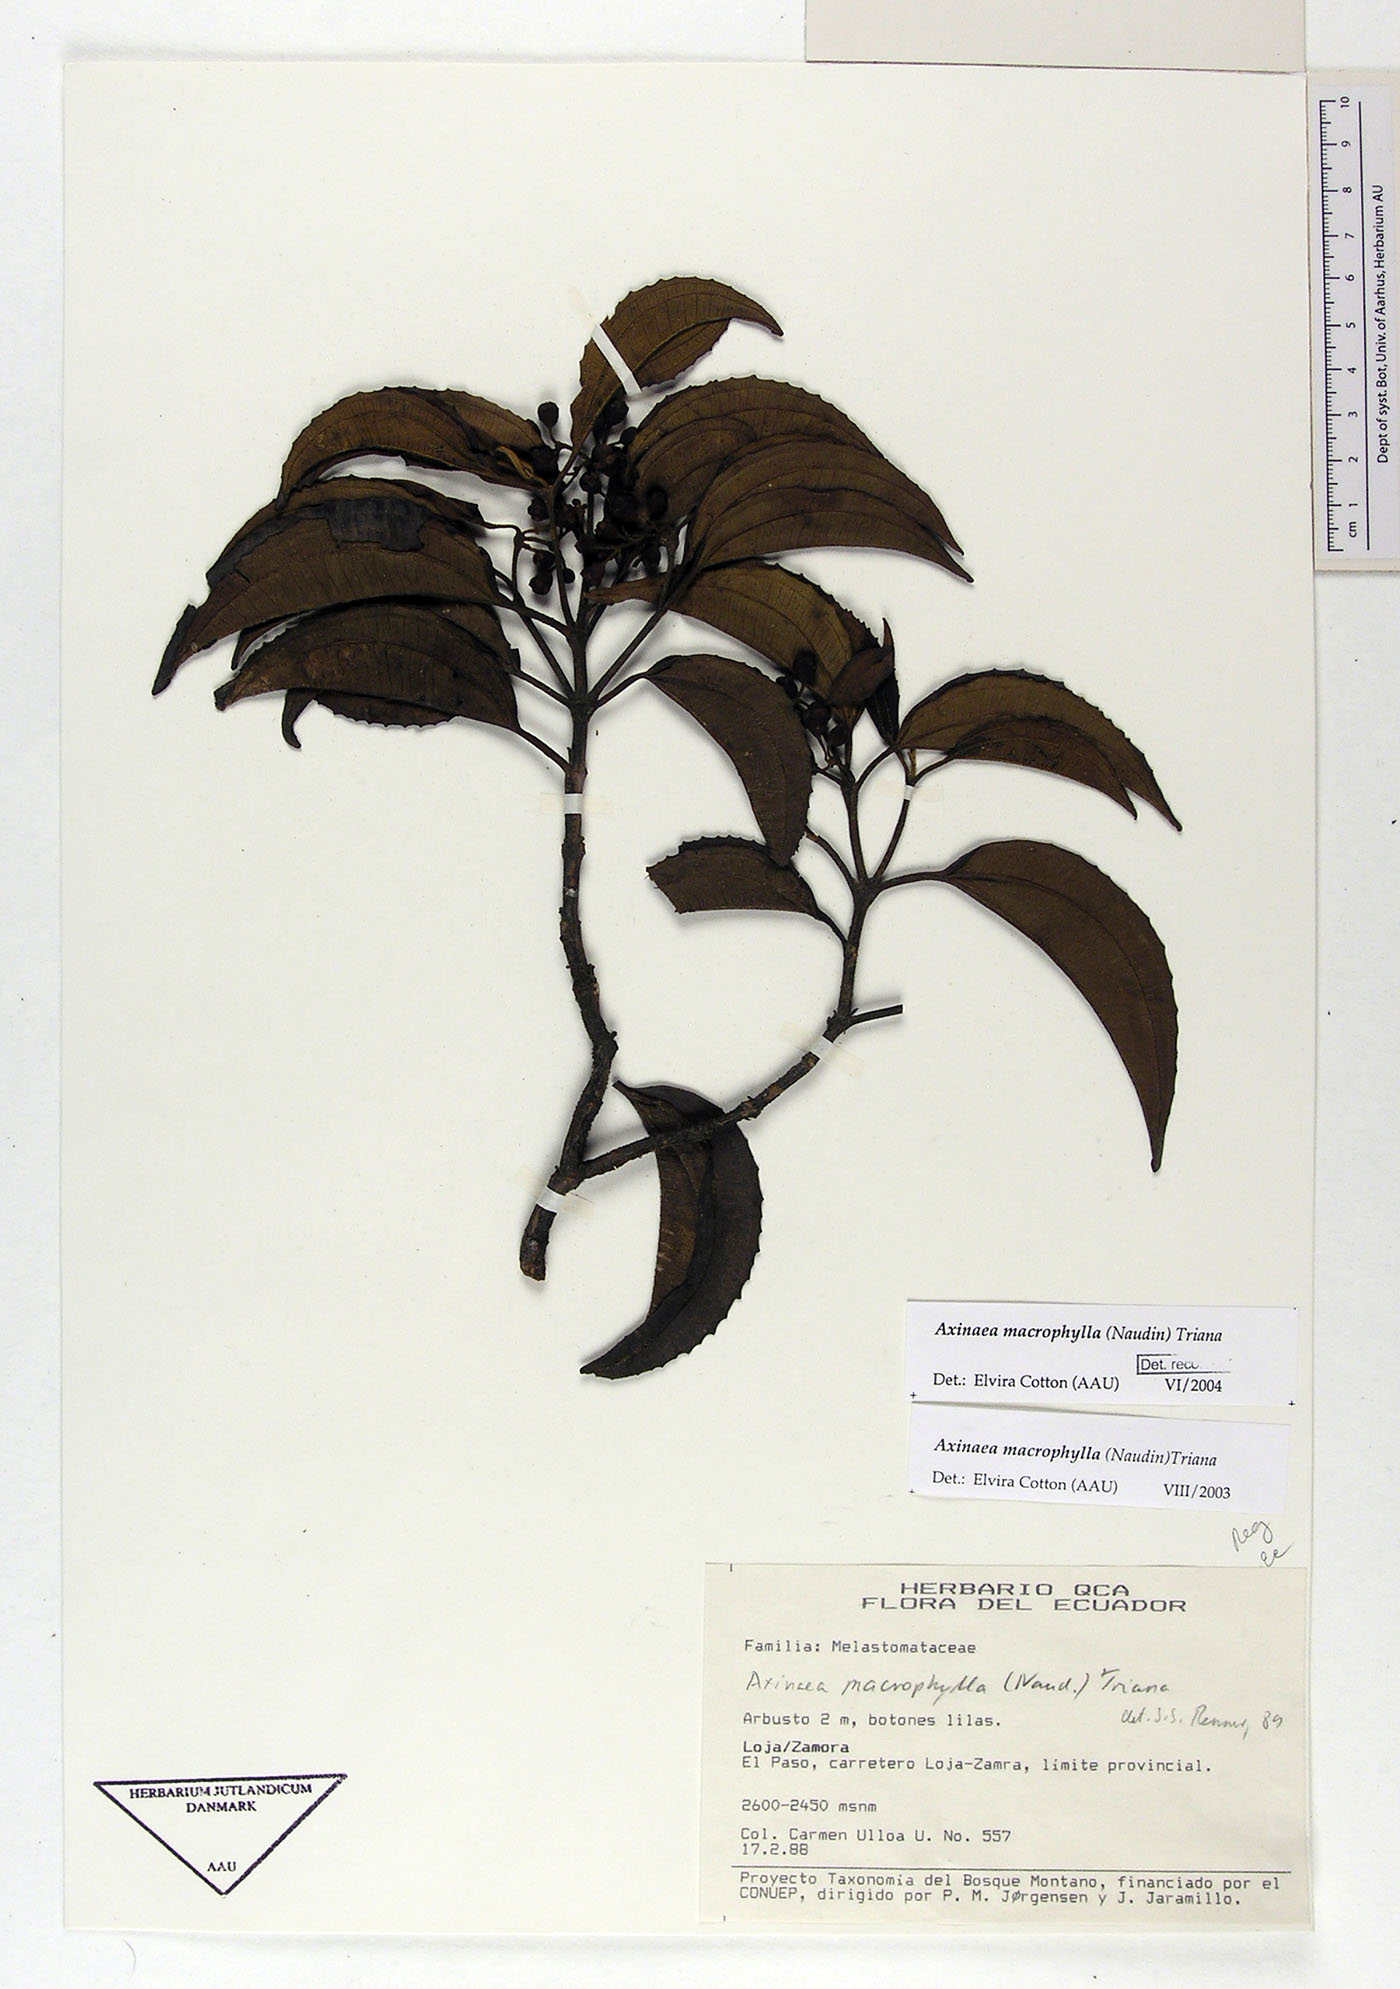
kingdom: Plantae
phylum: Tracheophyta
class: Magnoliopsida
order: Myrtales
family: Melastomataceae
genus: Axinaea
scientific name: Axinaea macrophylla
